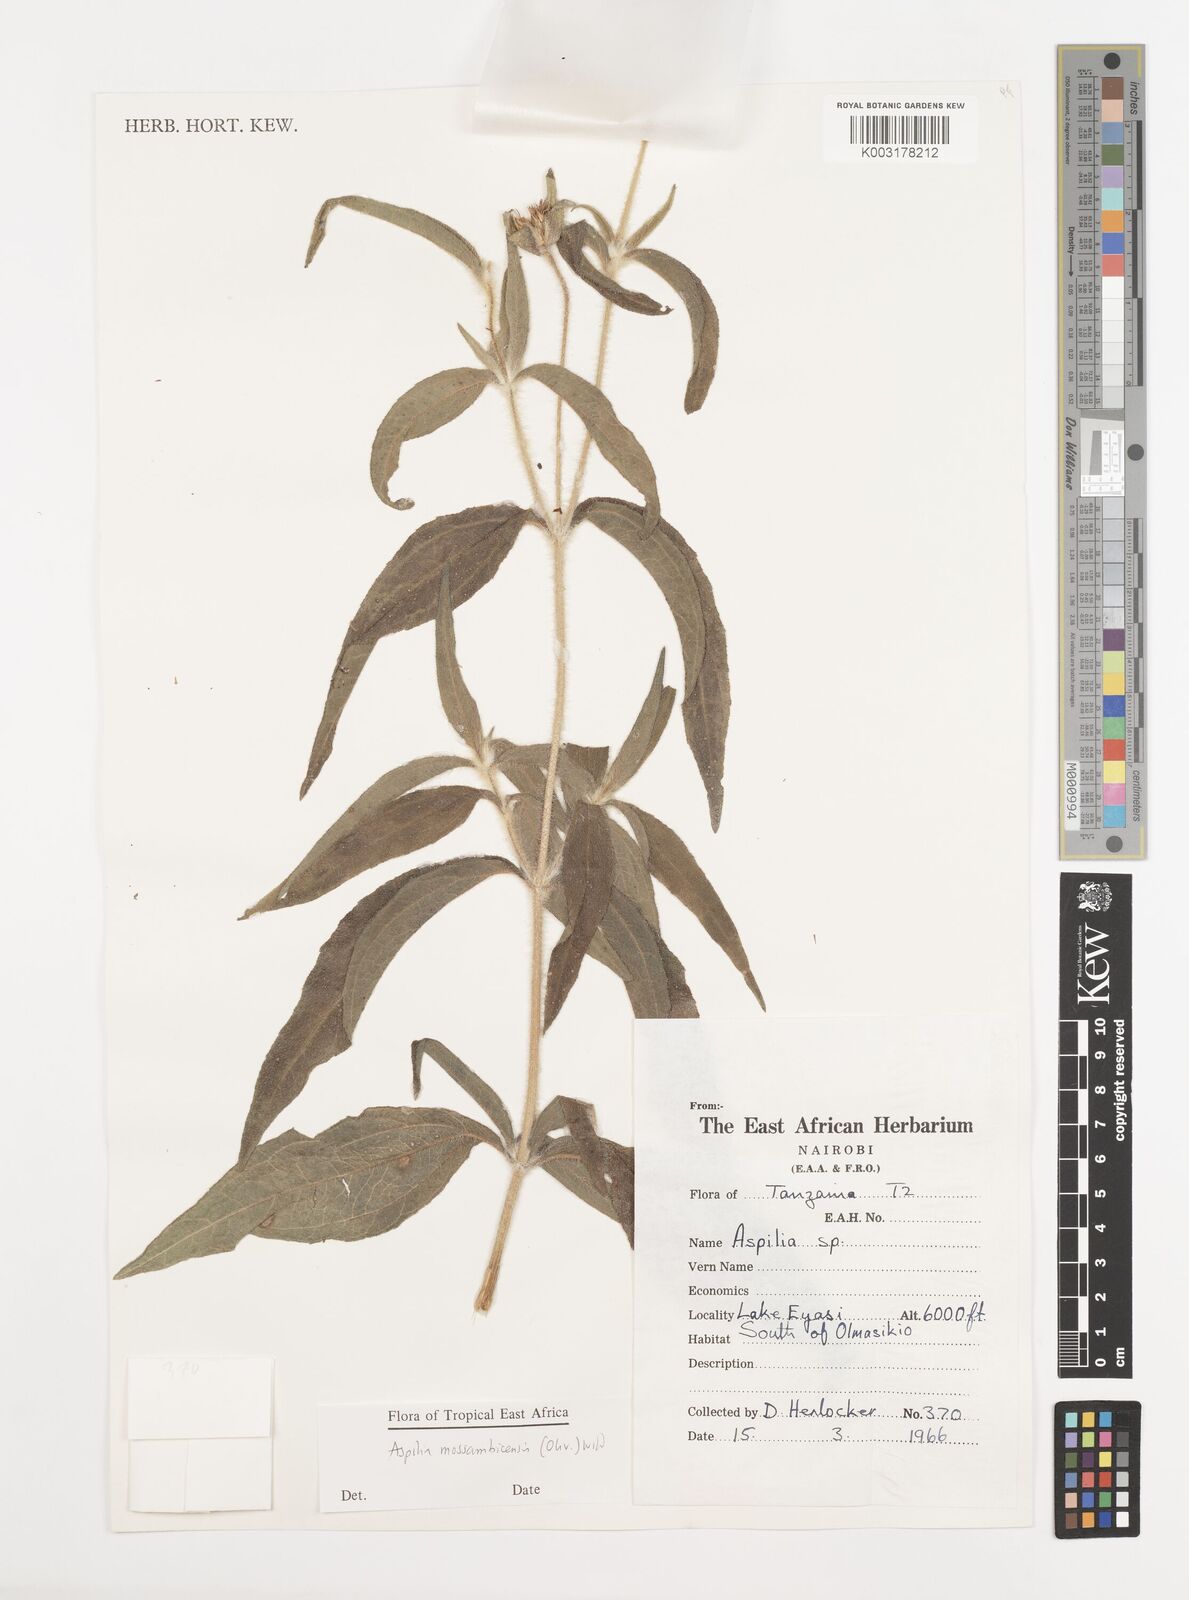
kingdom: Plantae
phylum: Tracheophyta
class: Magnoliopsida
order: Asterales
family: Asteraceae
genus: Aspilia
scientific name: Aspilia mossambicensis
